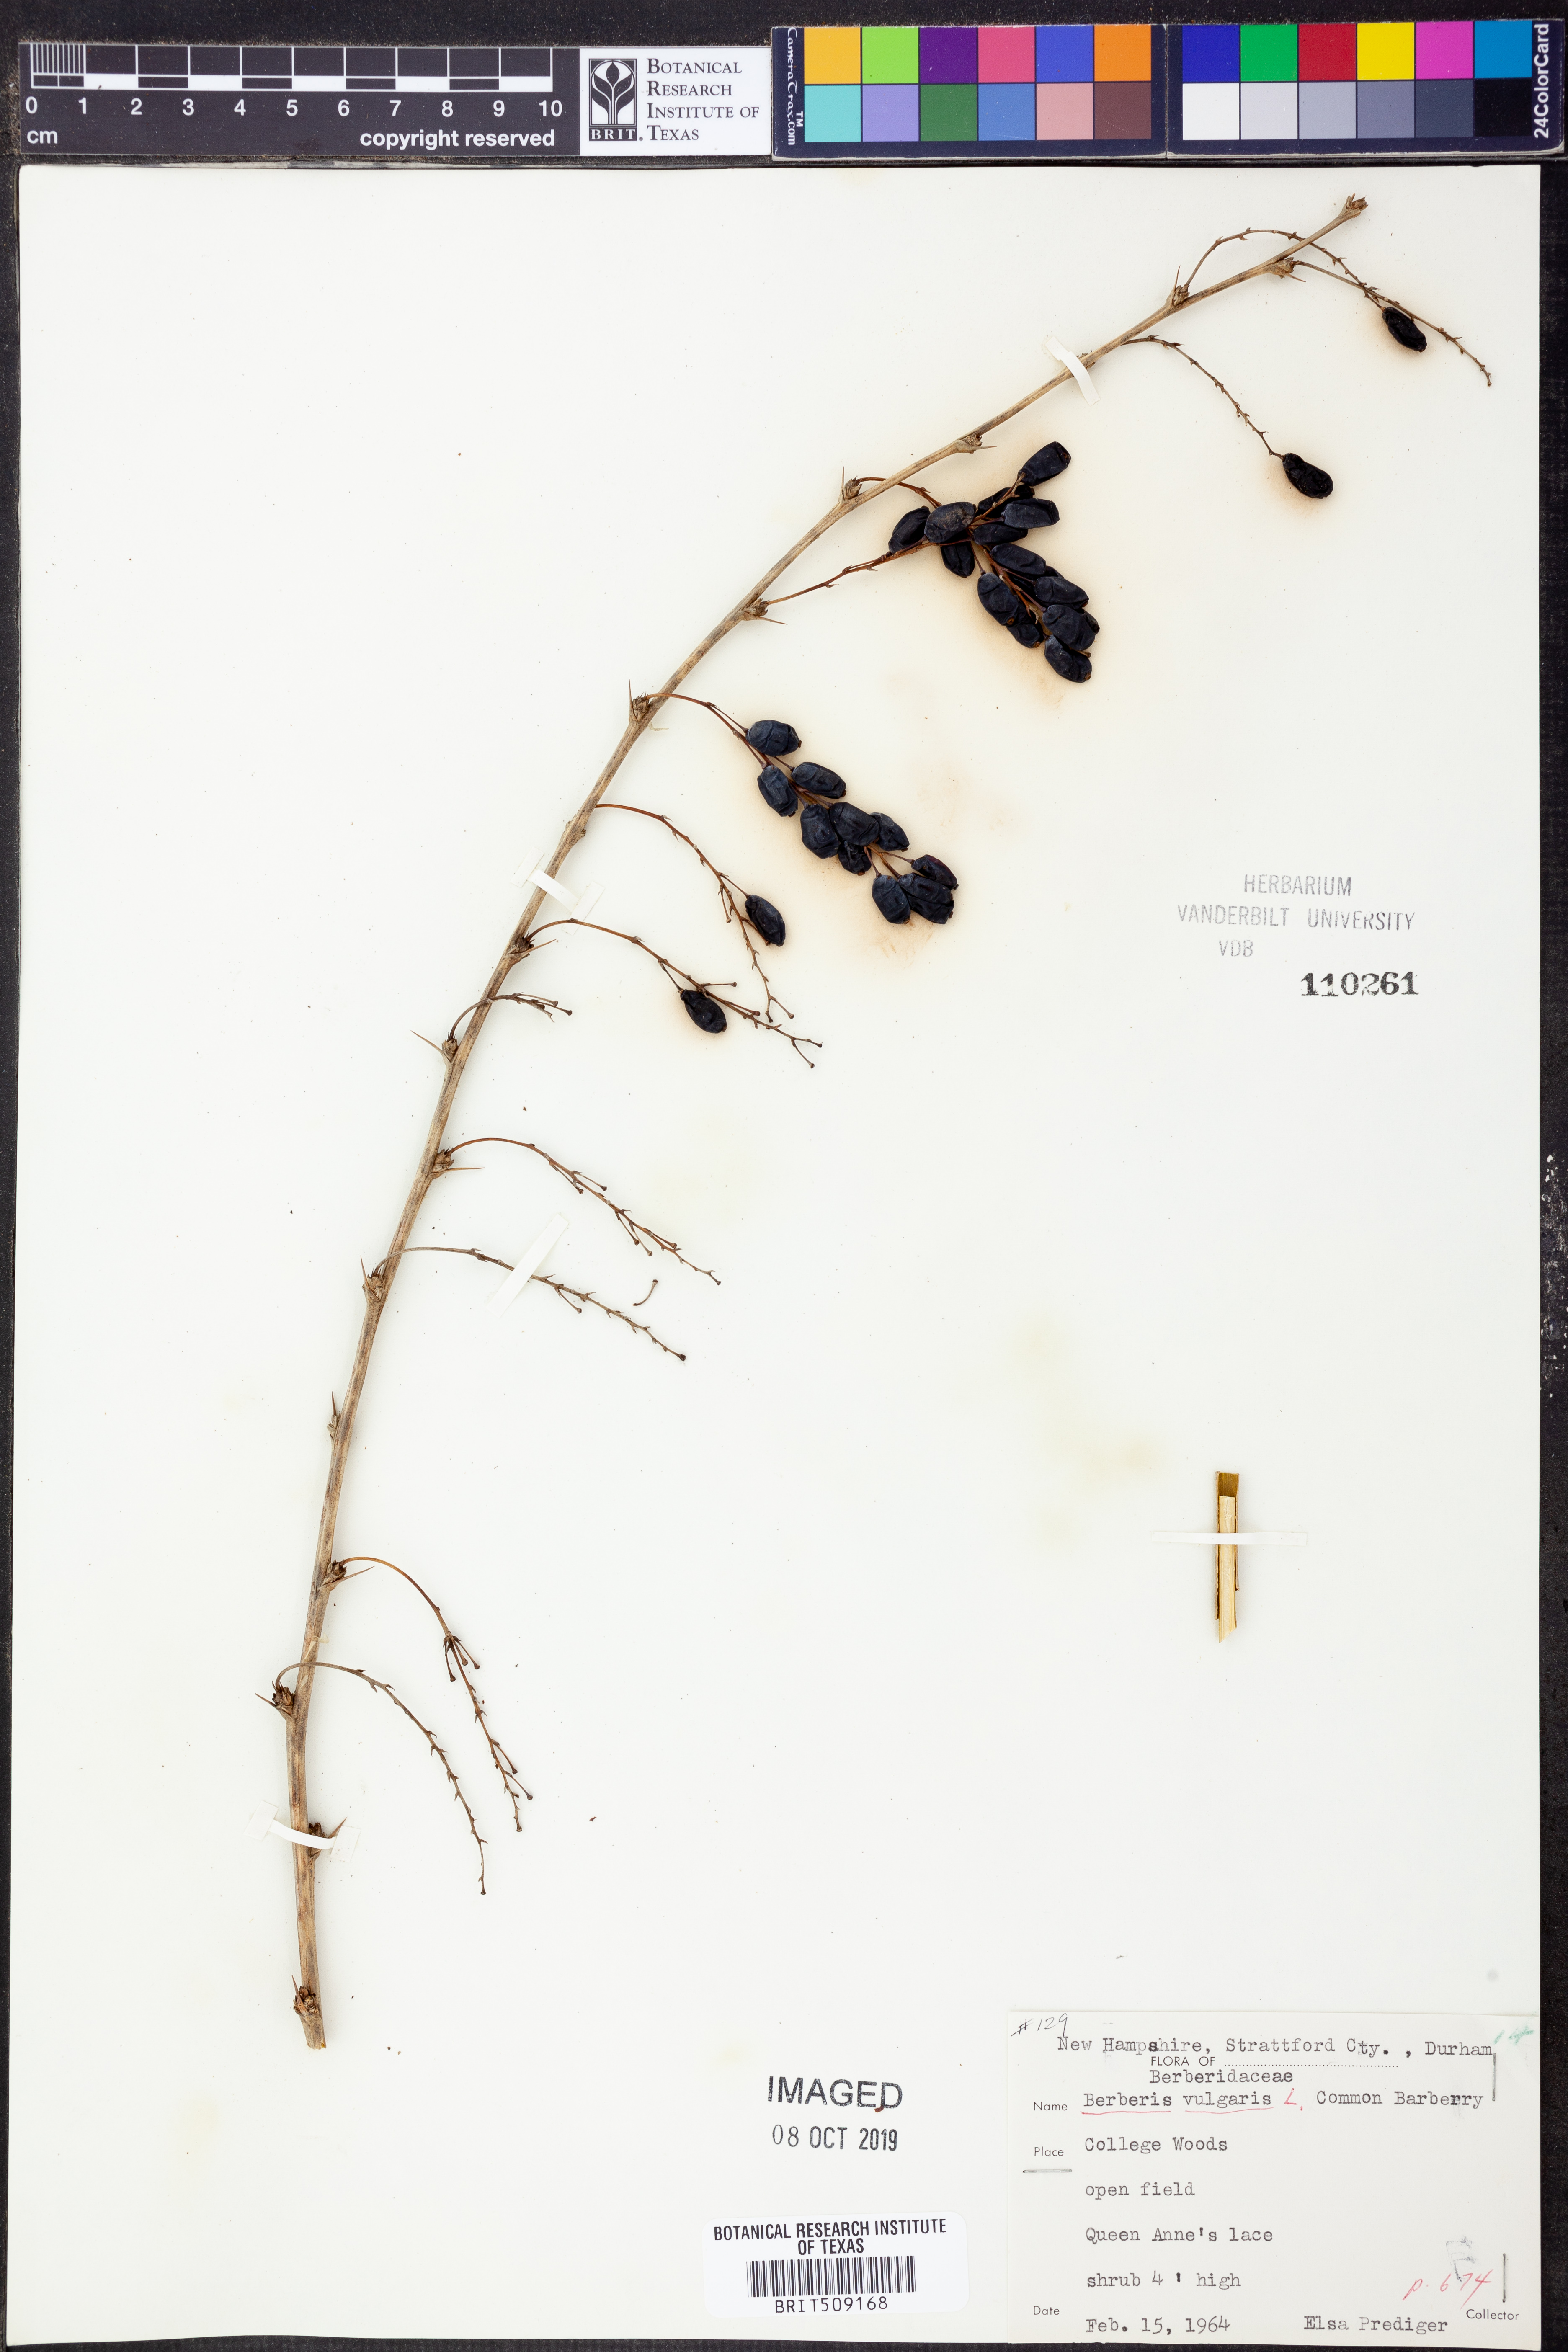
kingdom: Plantae
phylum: Tracheophyta
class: Magnoliopsida
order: Ranunculales
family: Berberidaceae
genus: Berberis
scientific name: Berberis vulgaris
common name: Barberry
